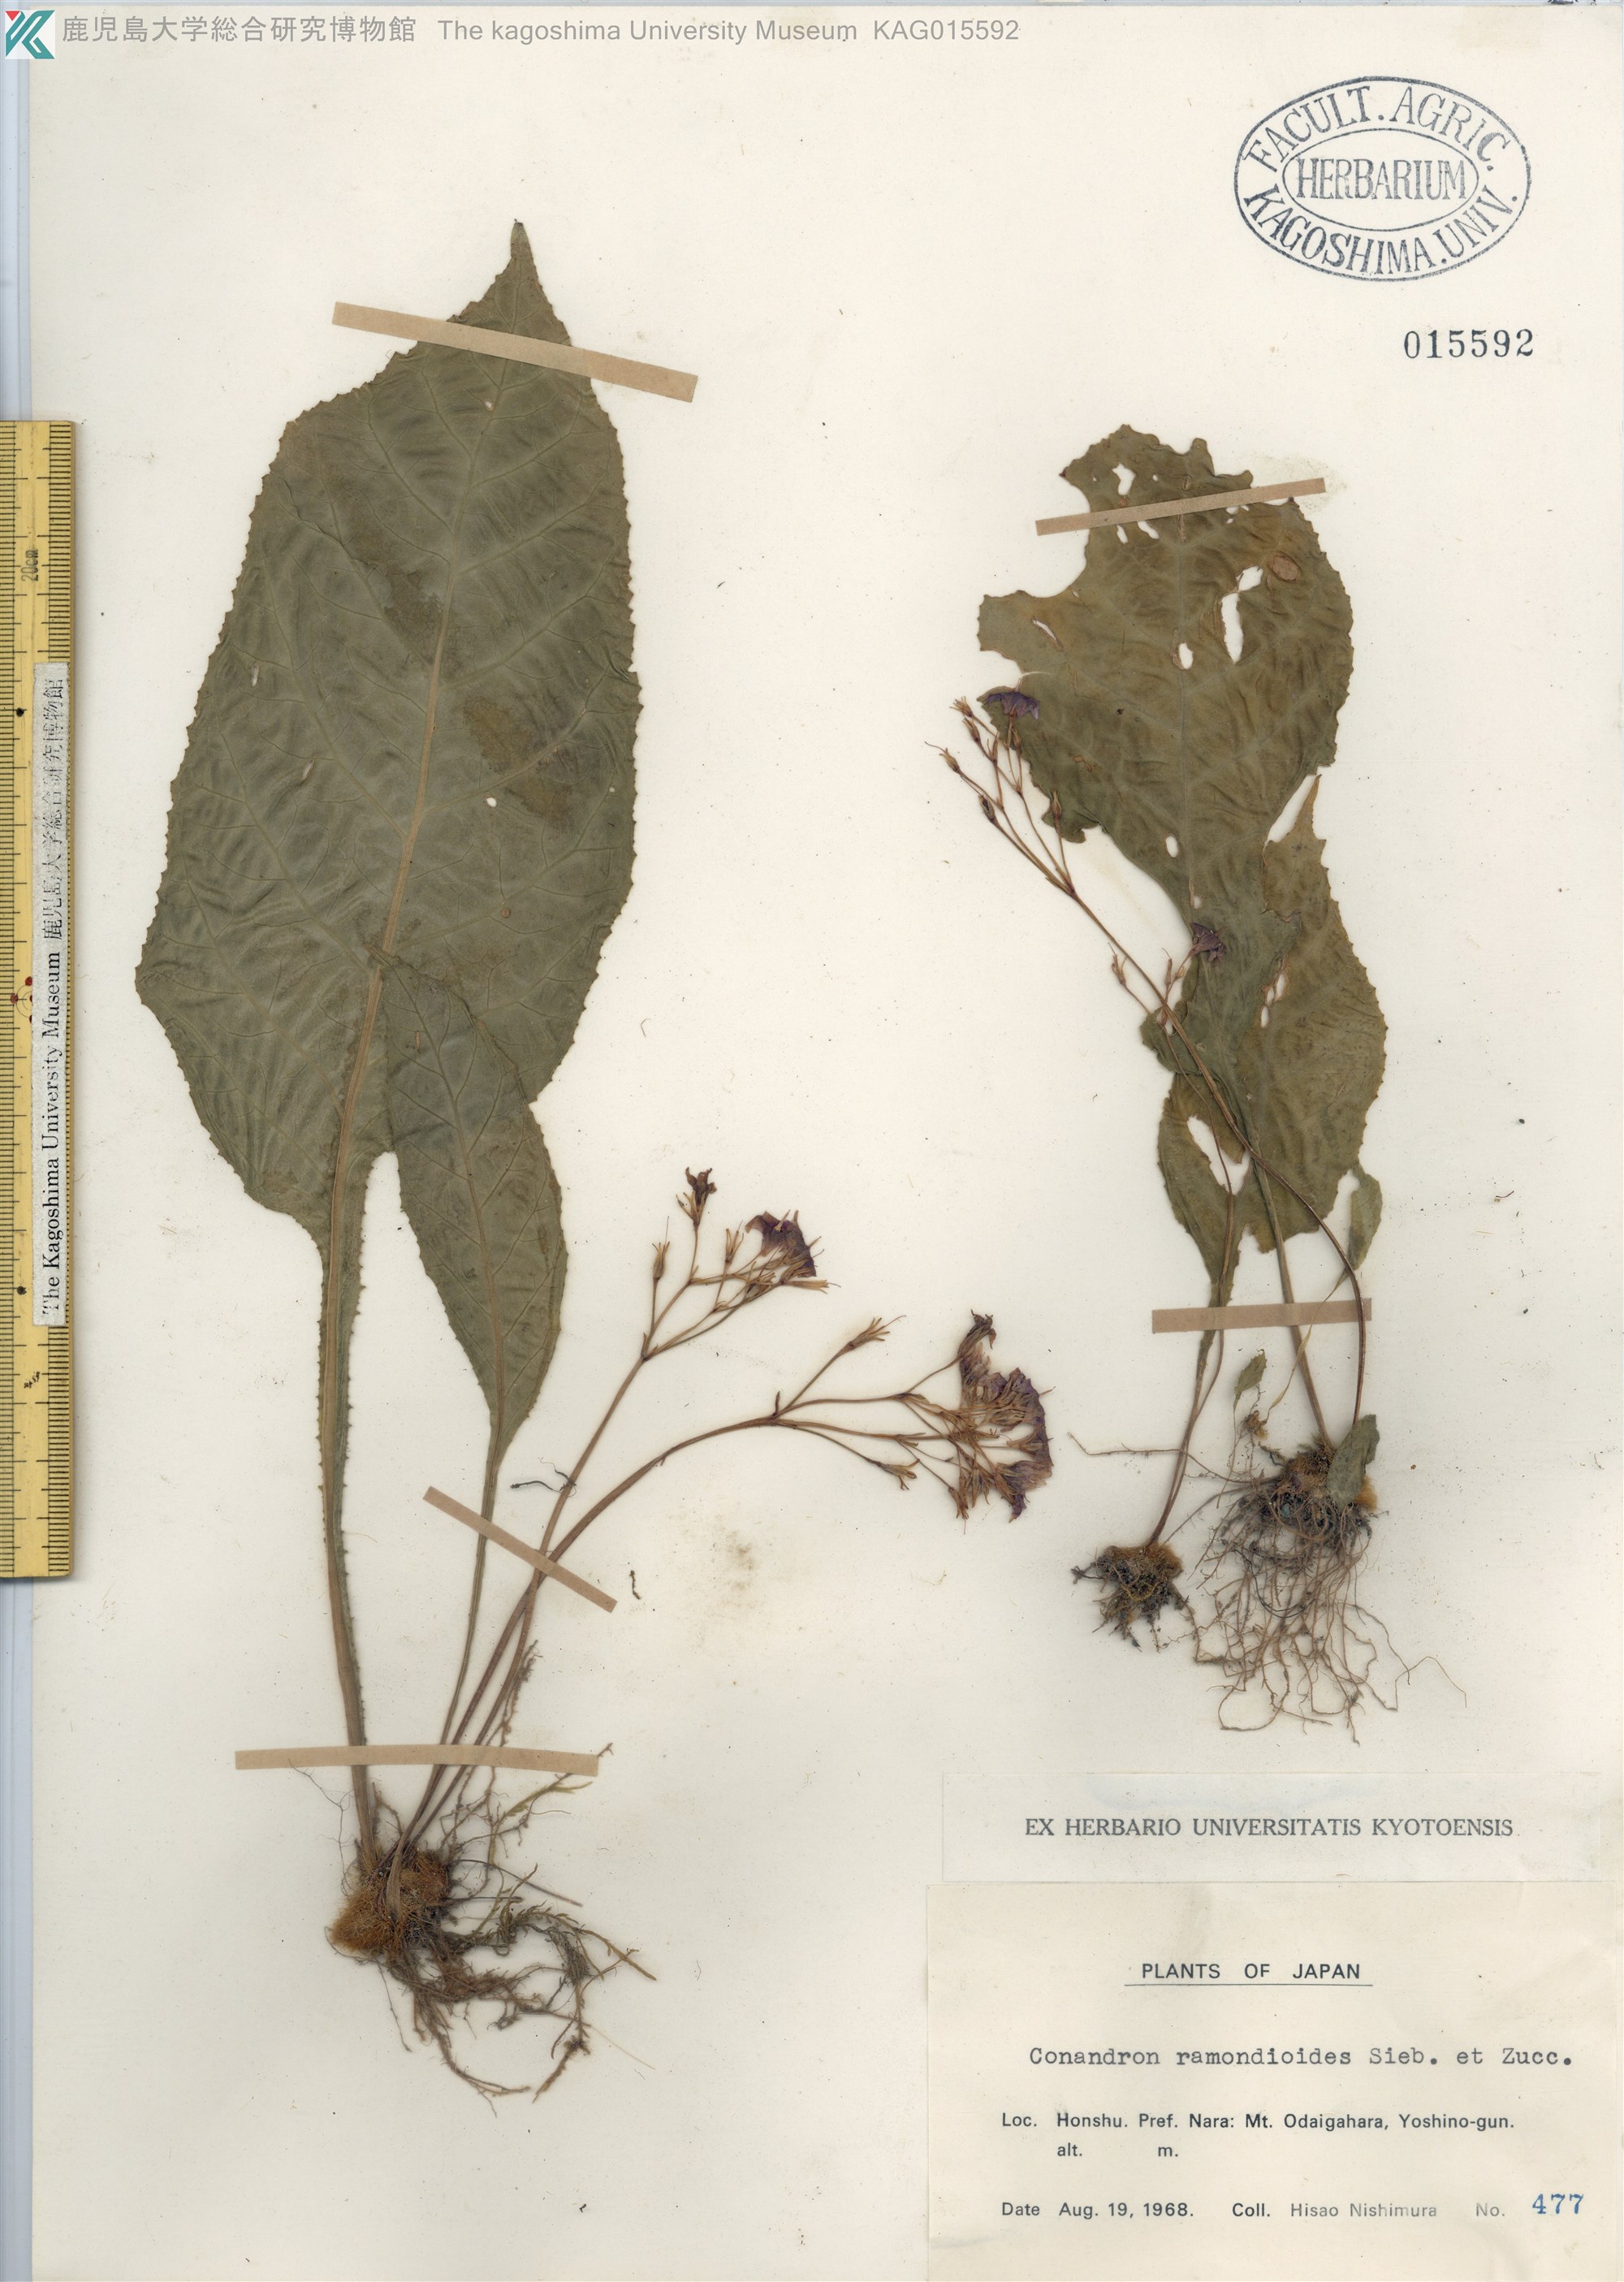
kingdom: Plantae
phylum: Tracheophyta
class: Magnoliopsida
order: Lamiales
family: Gesneriaceae
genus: Conandron
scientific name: Conandron ramondioides
